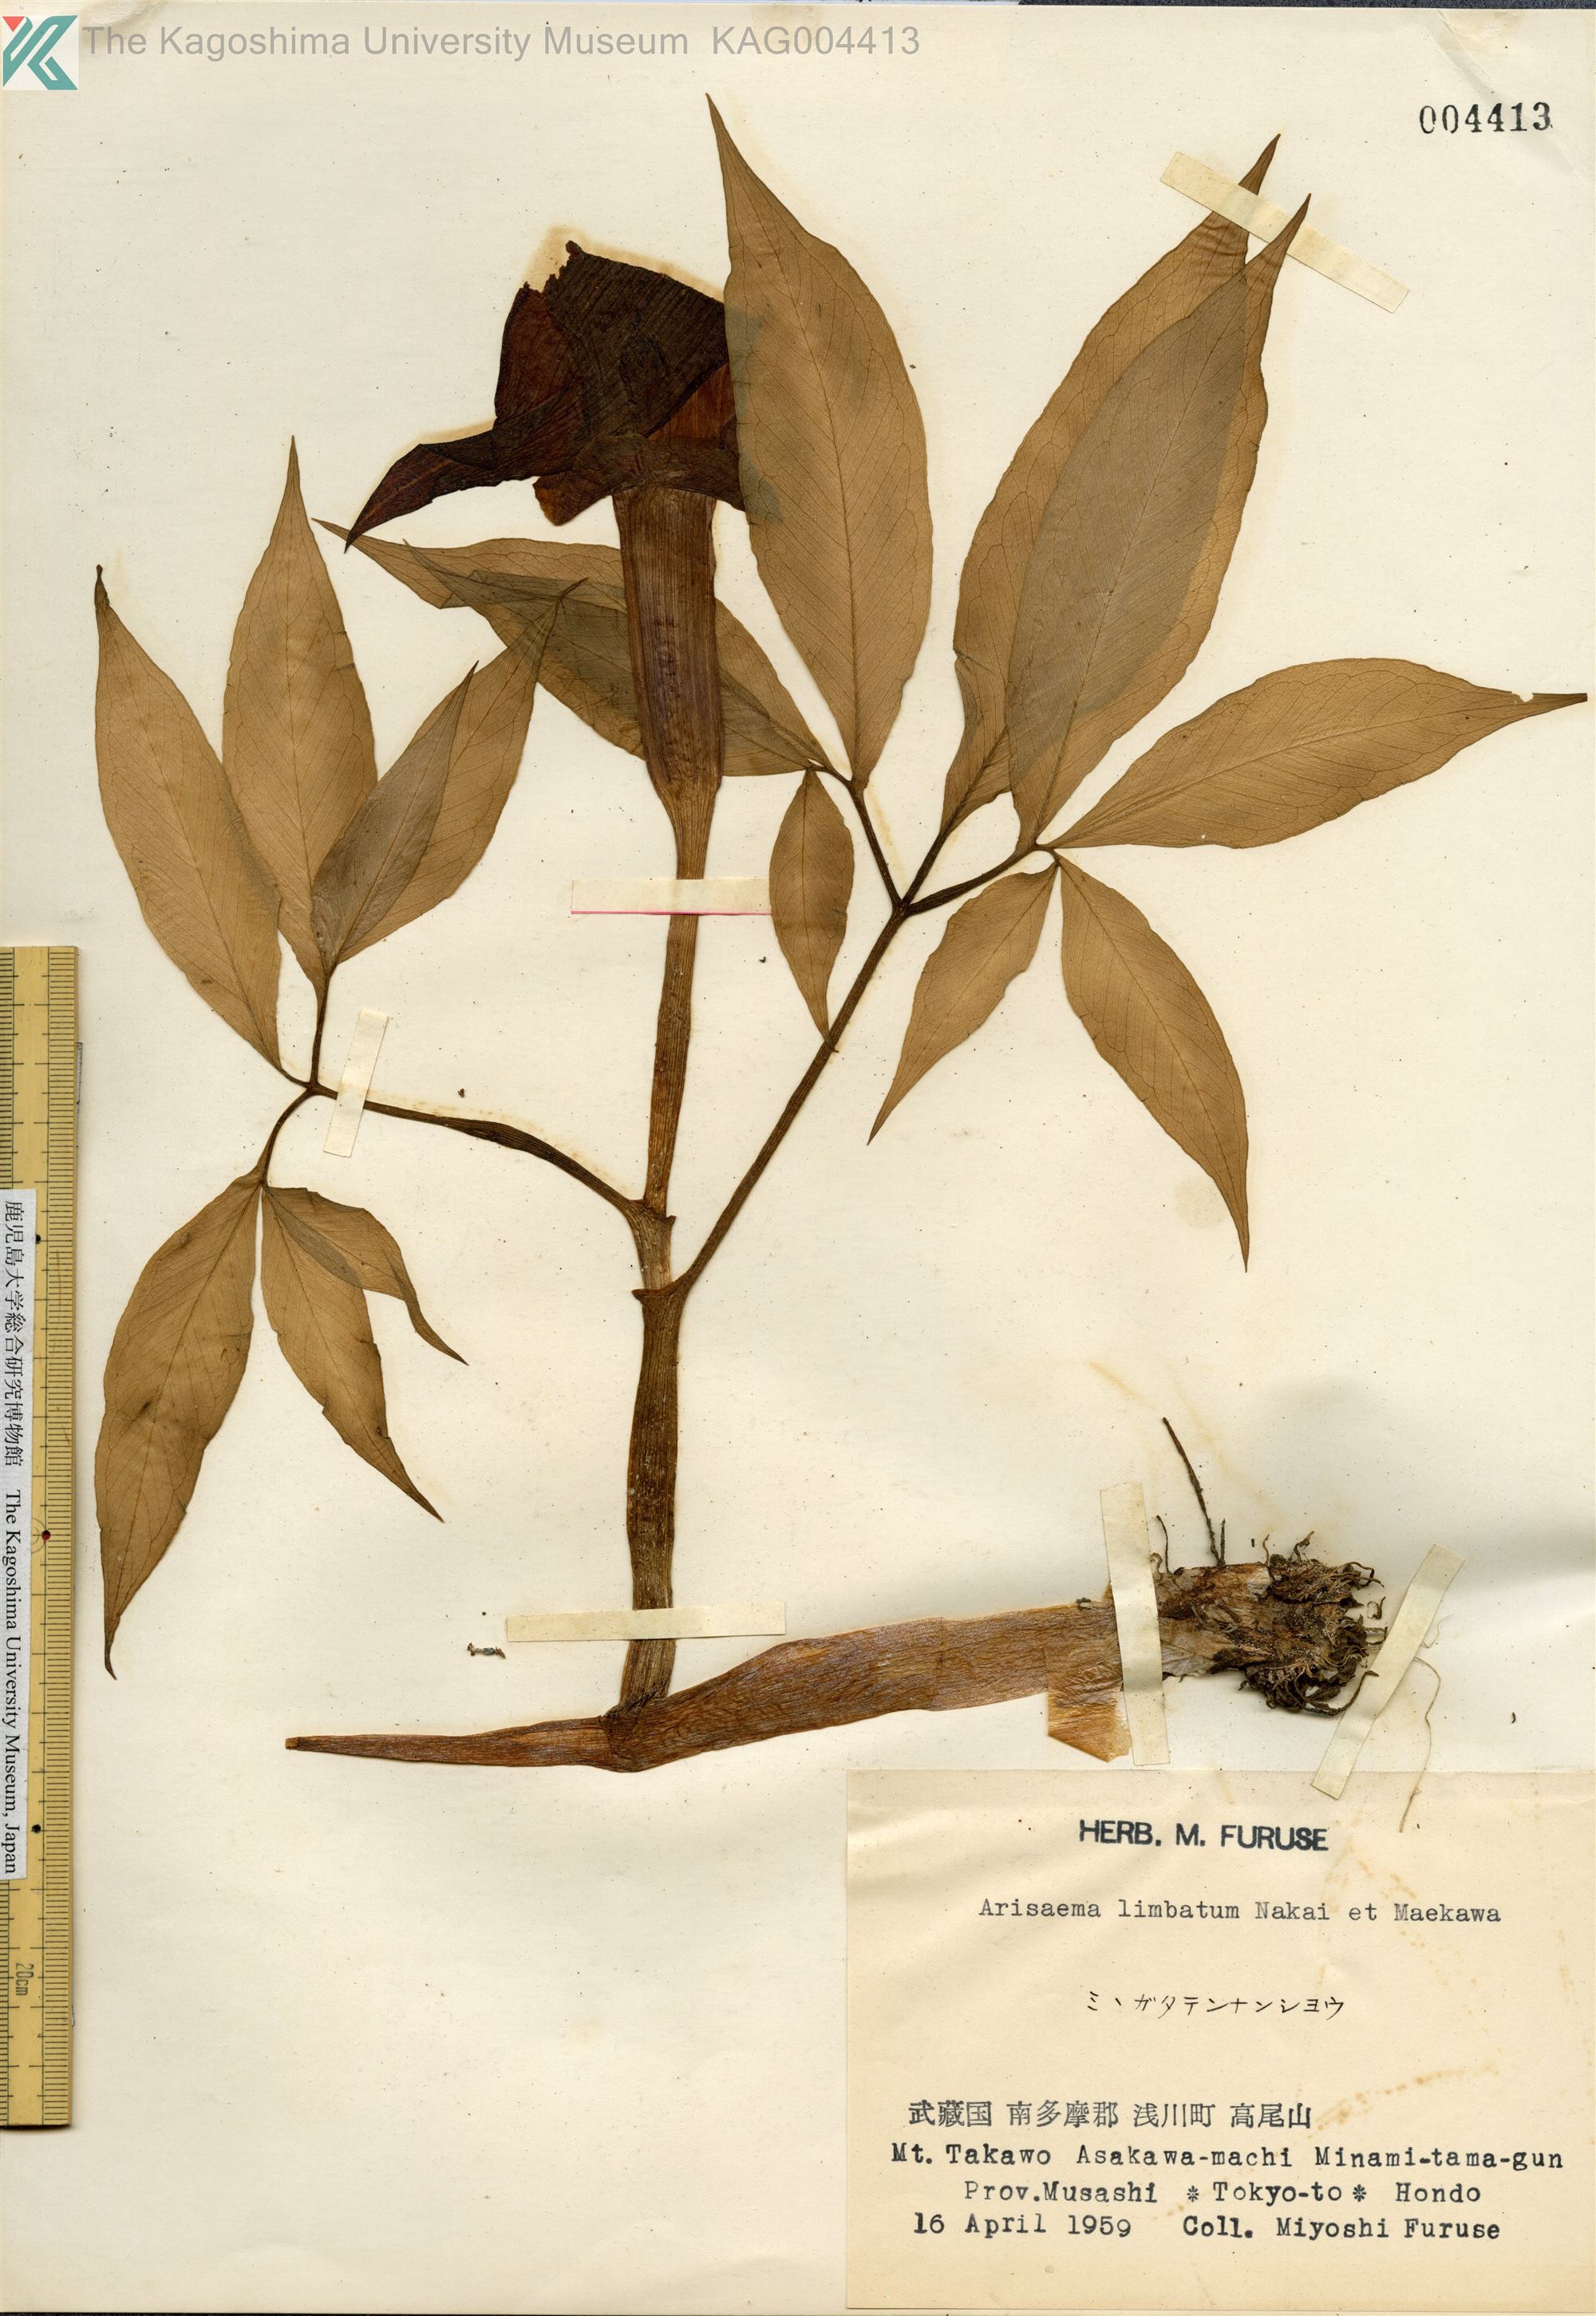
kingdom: Plantae
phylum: Tracheophyta
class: Liliopsida
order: Alismatales
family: Araceae
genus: Arisaema
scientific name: Arisaema consanguineum
